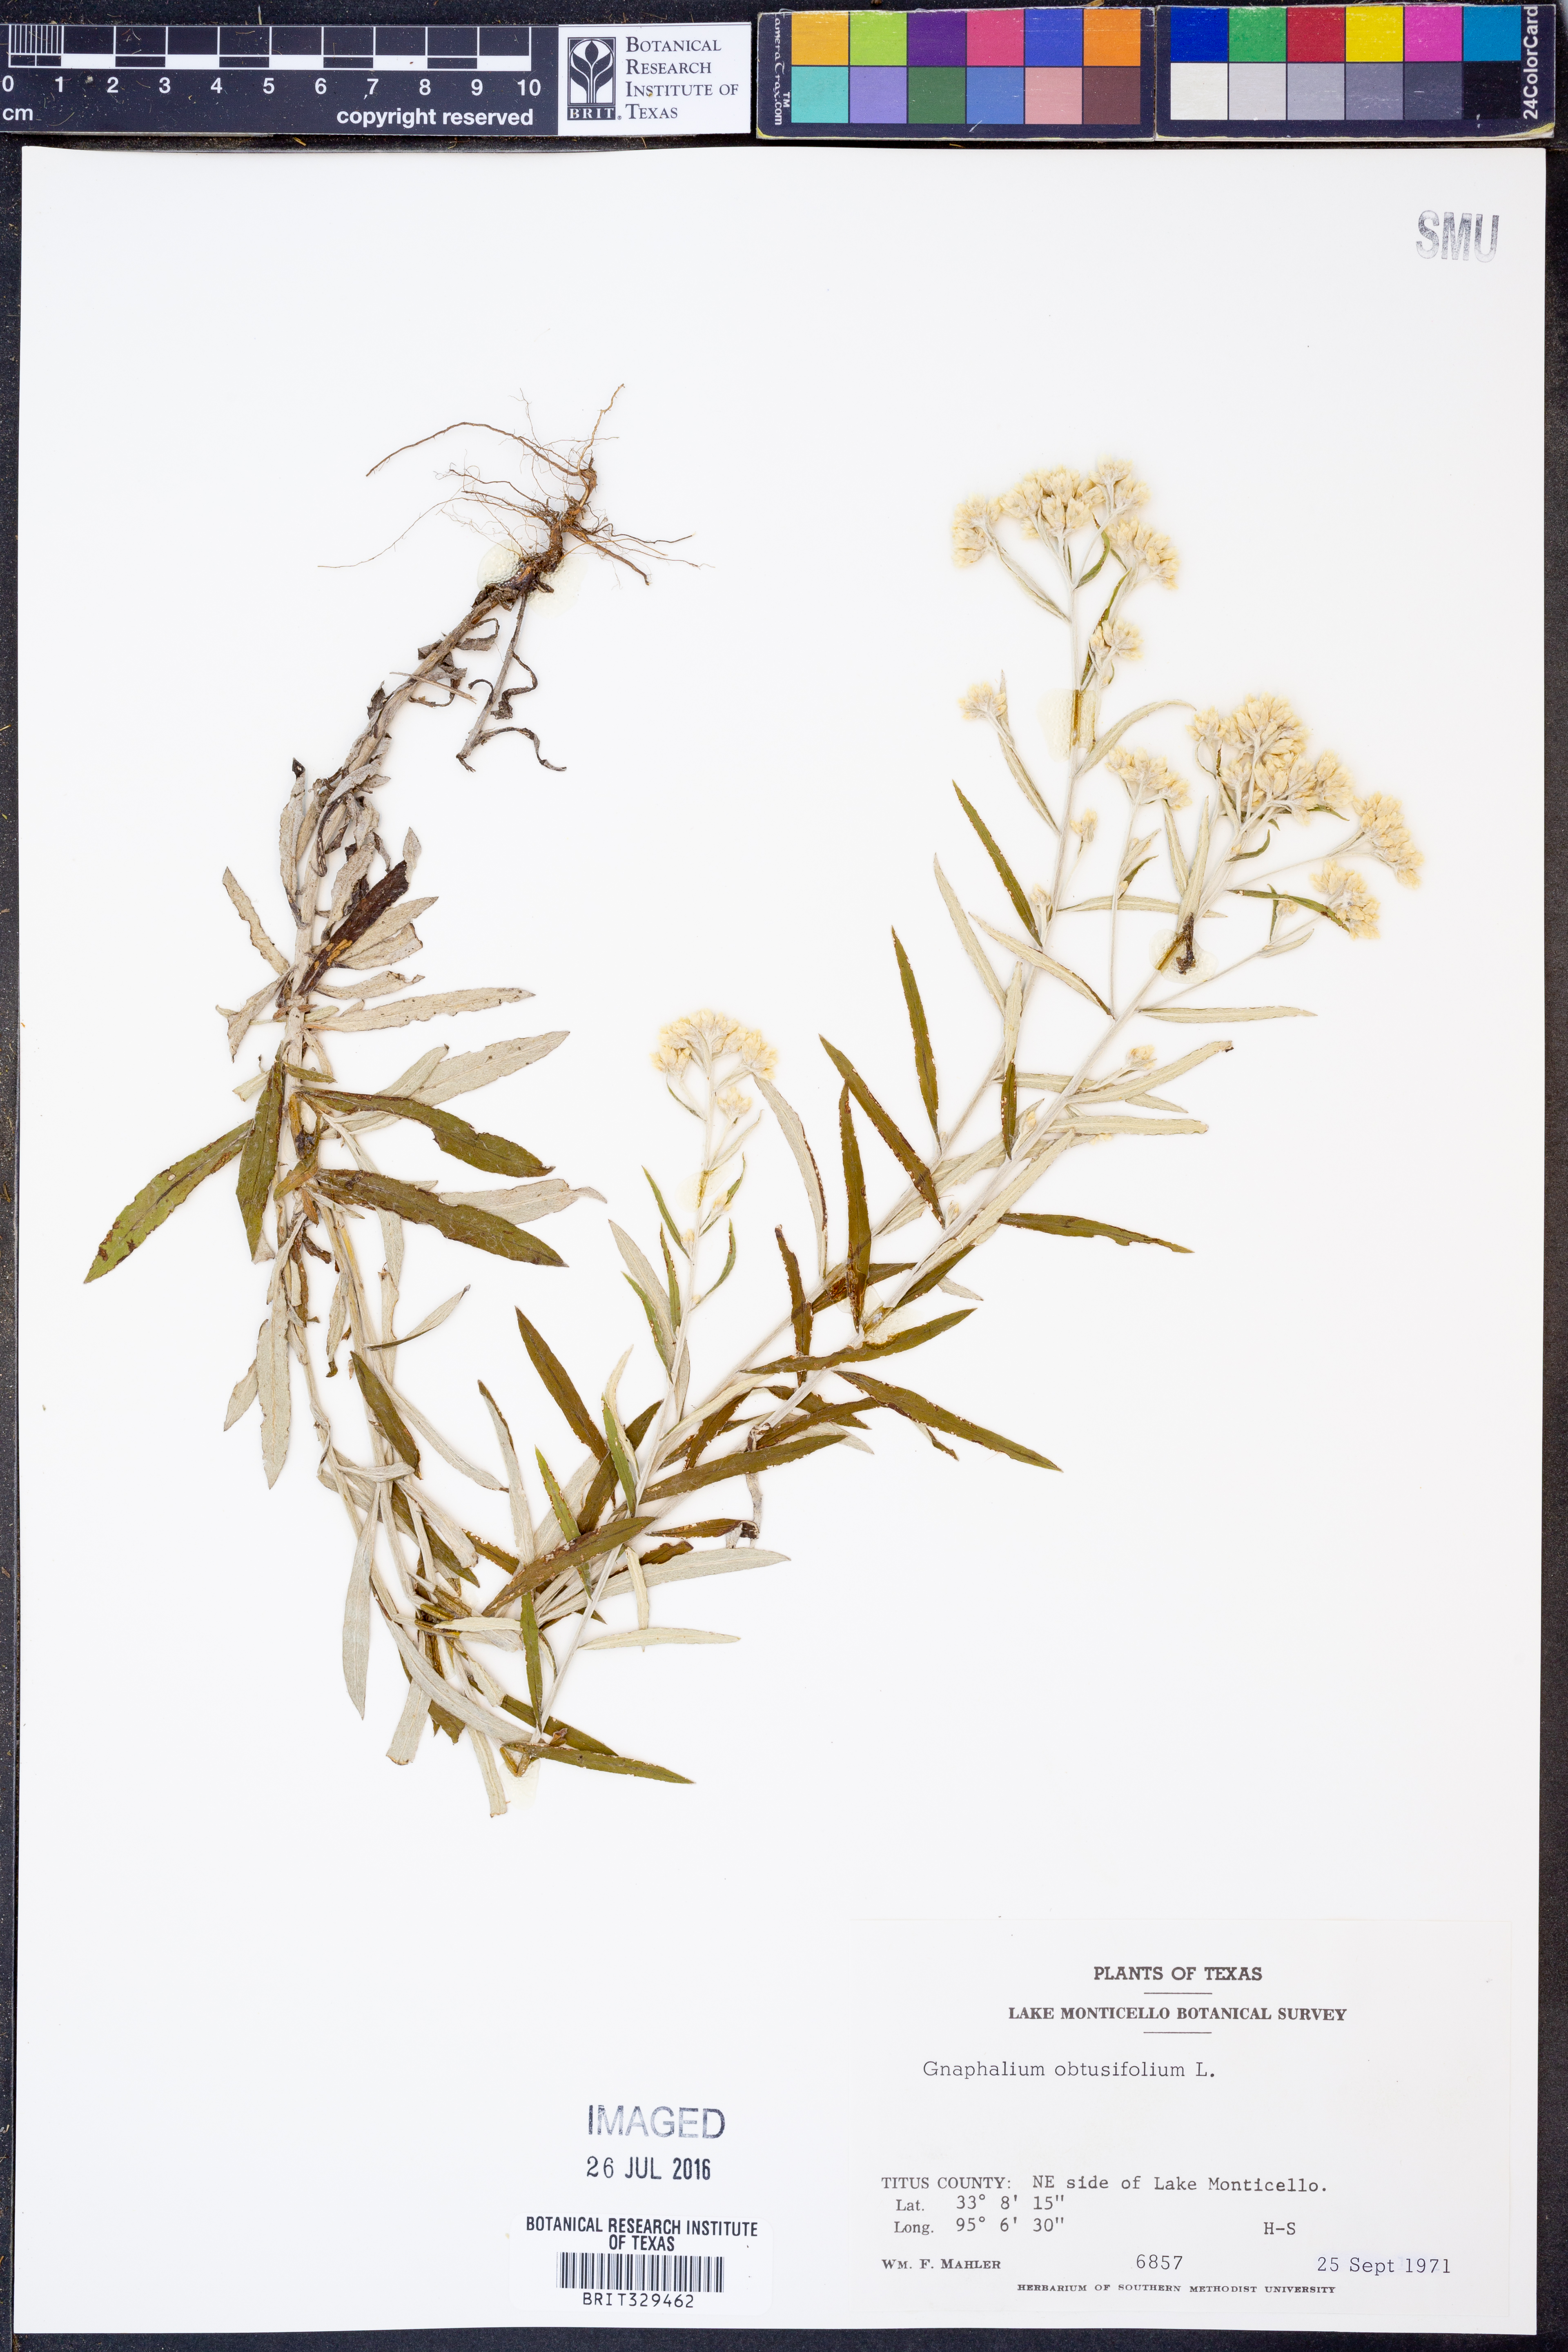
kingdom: Plantae
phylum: Tracheophyta
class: Magnoliopsida
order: Asterales
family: Asteraceae
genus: Pseudognaphalium
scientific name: Pseudognaphalium obtusifolium
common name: Eastern rabbit-tobacco
